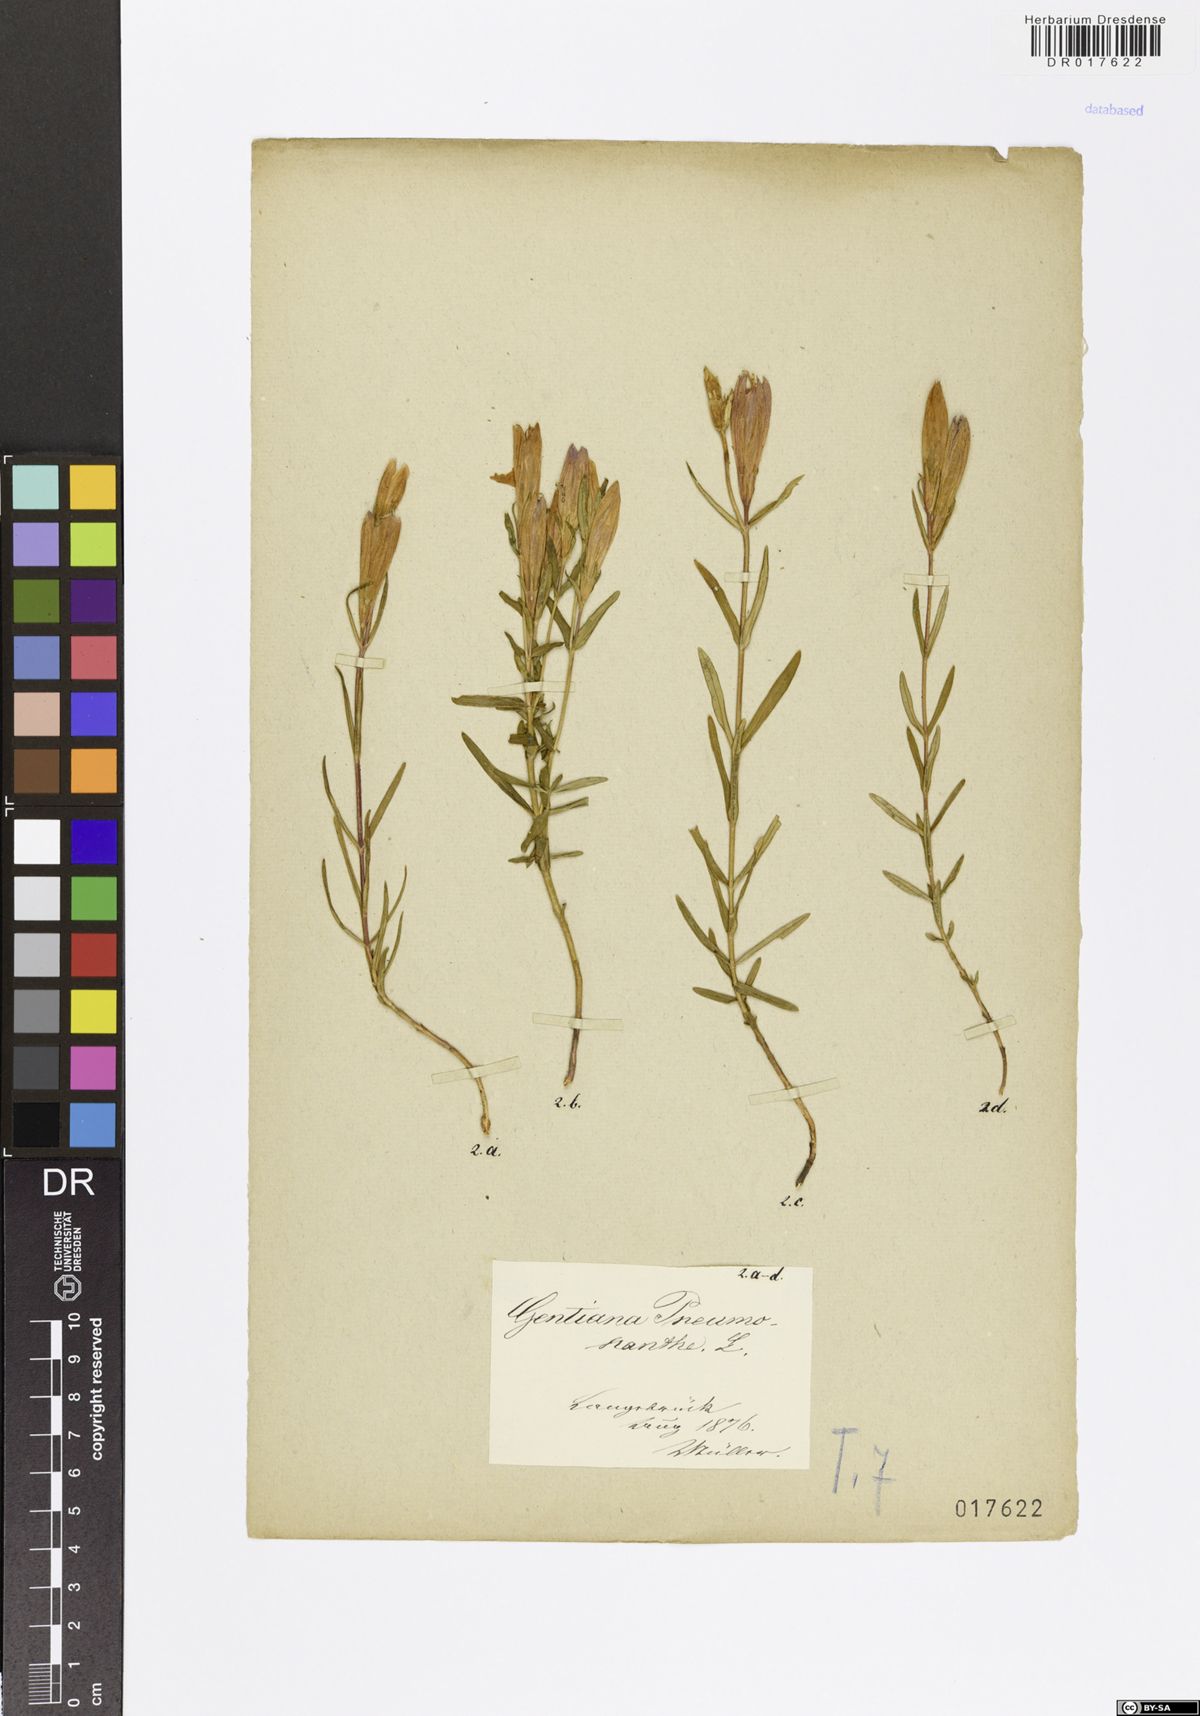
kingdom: Plantae
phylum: Tracheophyta
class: Magnoliopsida
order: Gentianales
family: Gentianaceae
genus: Gentiana
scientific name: Gentiana pneumonanthe
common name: Marsh gentian
